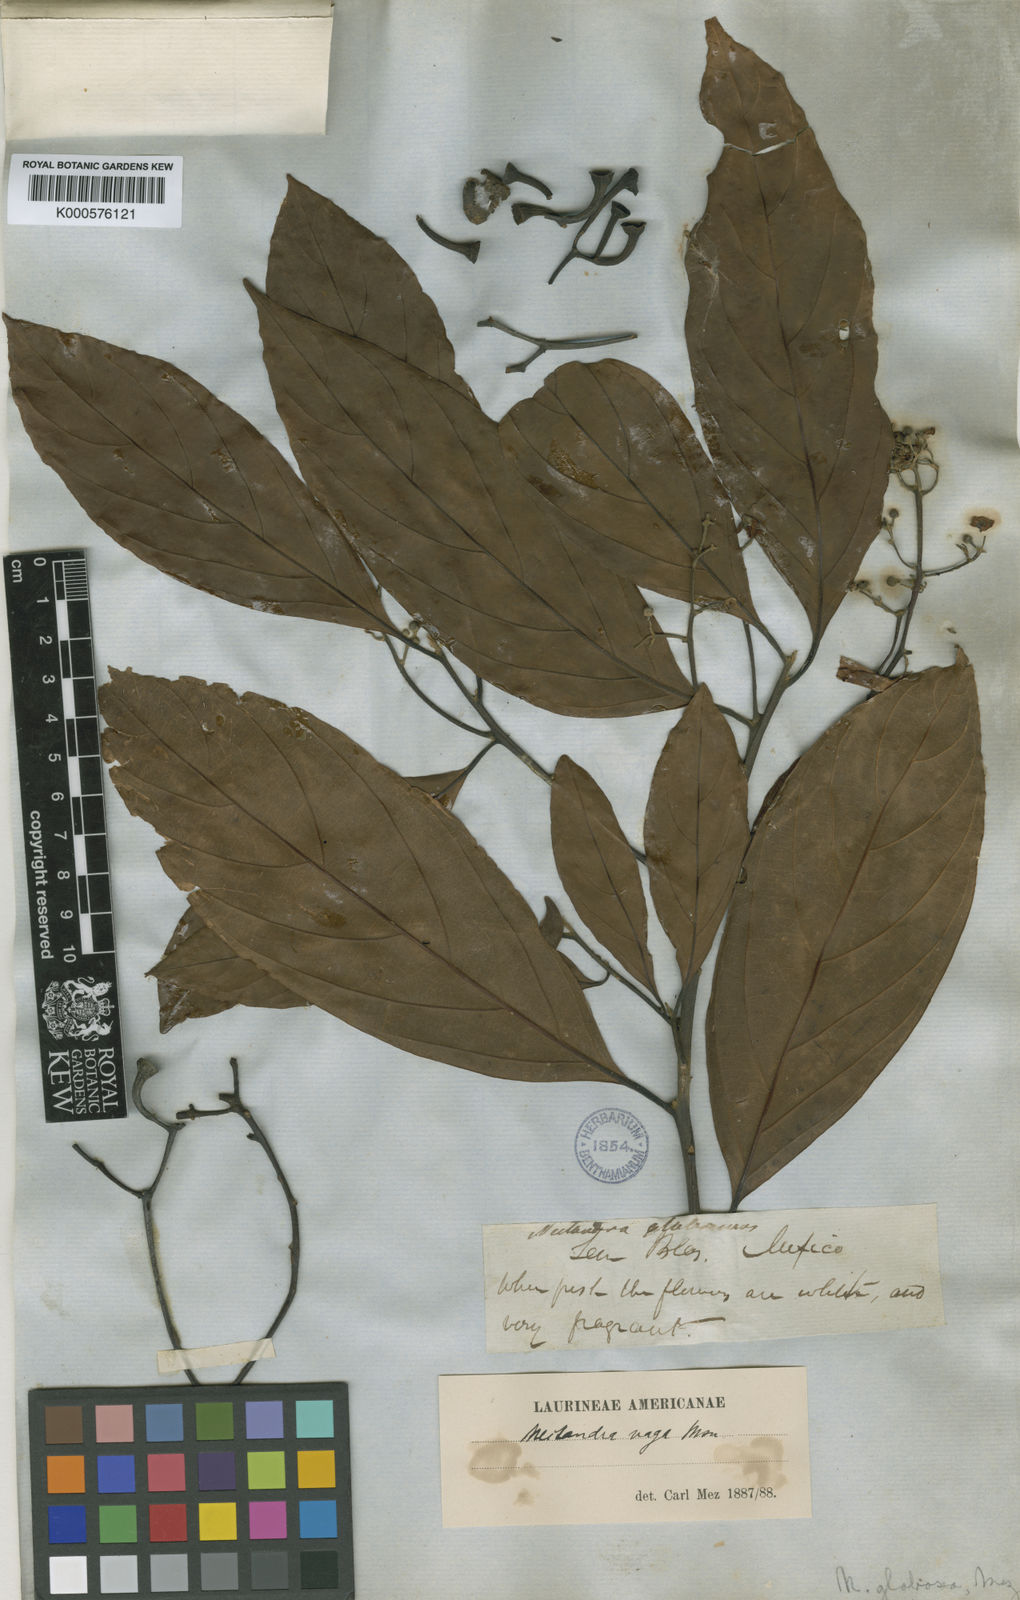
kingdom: Plantae
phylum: Tracheophyta
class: Magnoliopsida
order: Laurales
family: Lauraceae
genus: Nectandra
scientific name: Nectandra globosa
